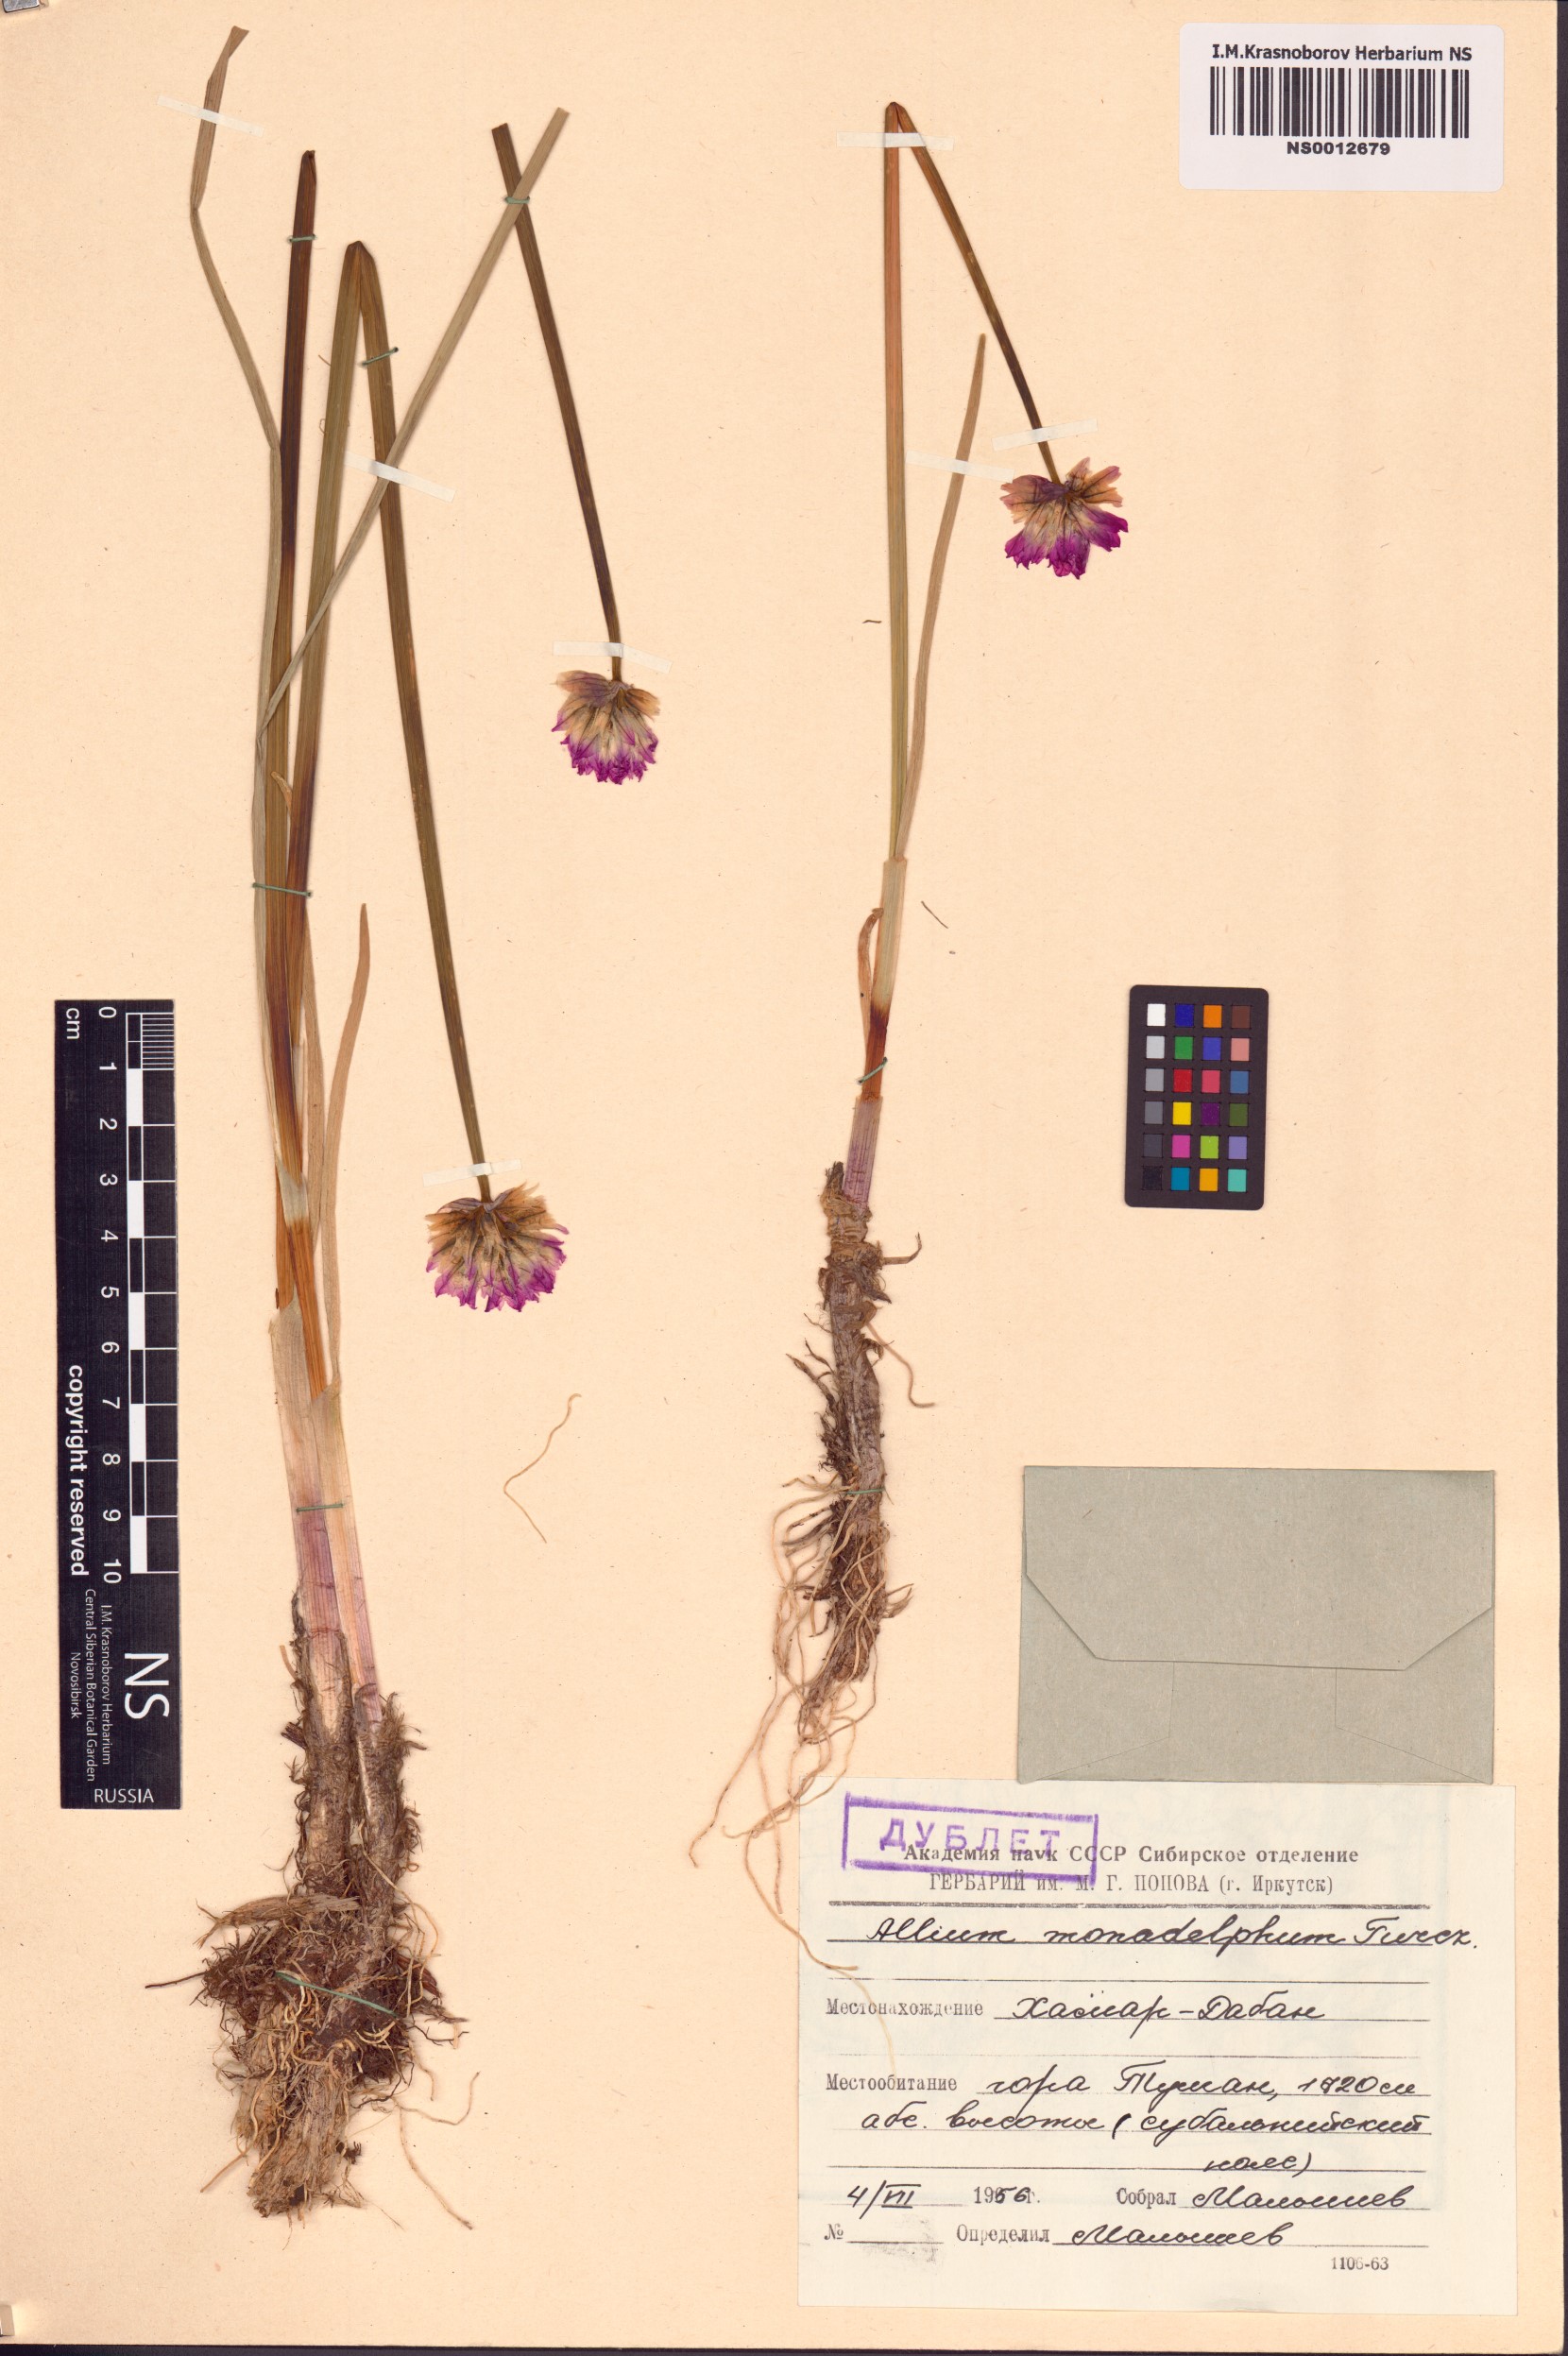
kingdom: Plantae
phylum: Tracheophyta
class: Liliopsida
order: Asparagales
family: Amaryllidaceae
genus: Allium
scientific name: Allium atrosanguineum
